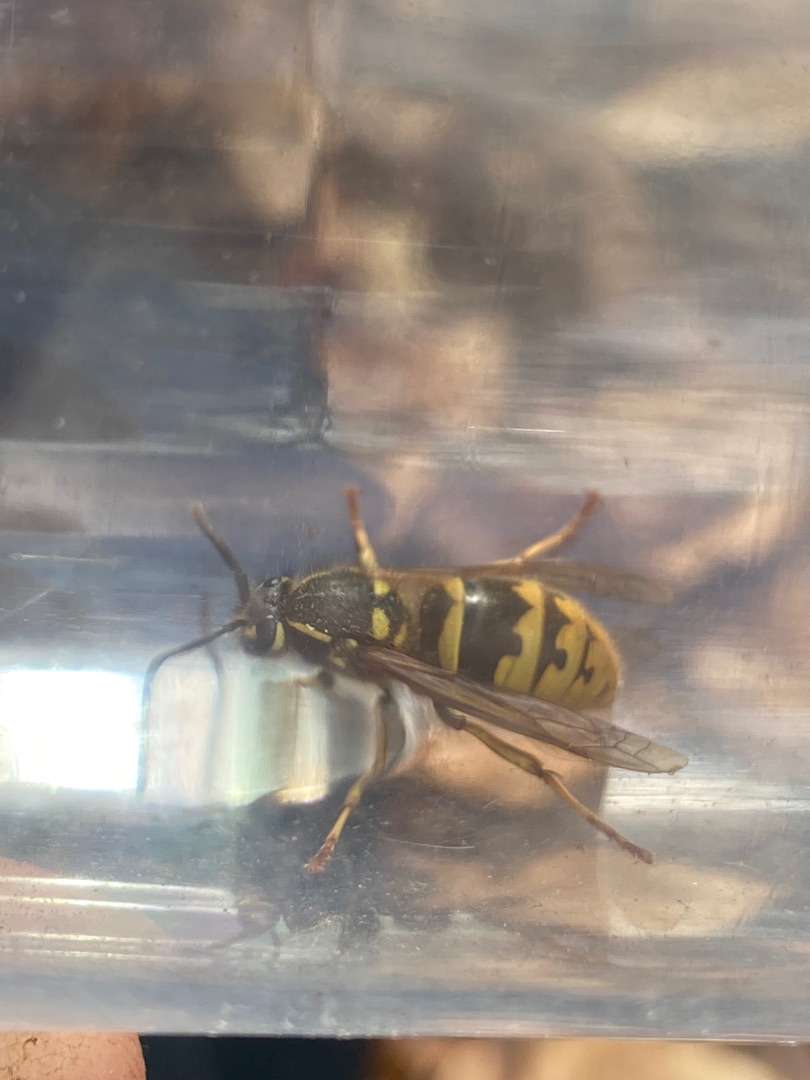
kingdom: Animalia
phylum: Arthropoda
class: Insecta
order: Hymenoptera
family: Vespidae
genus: Vespula
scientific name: Vespula vulgaris
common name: Almindelig gedehams
